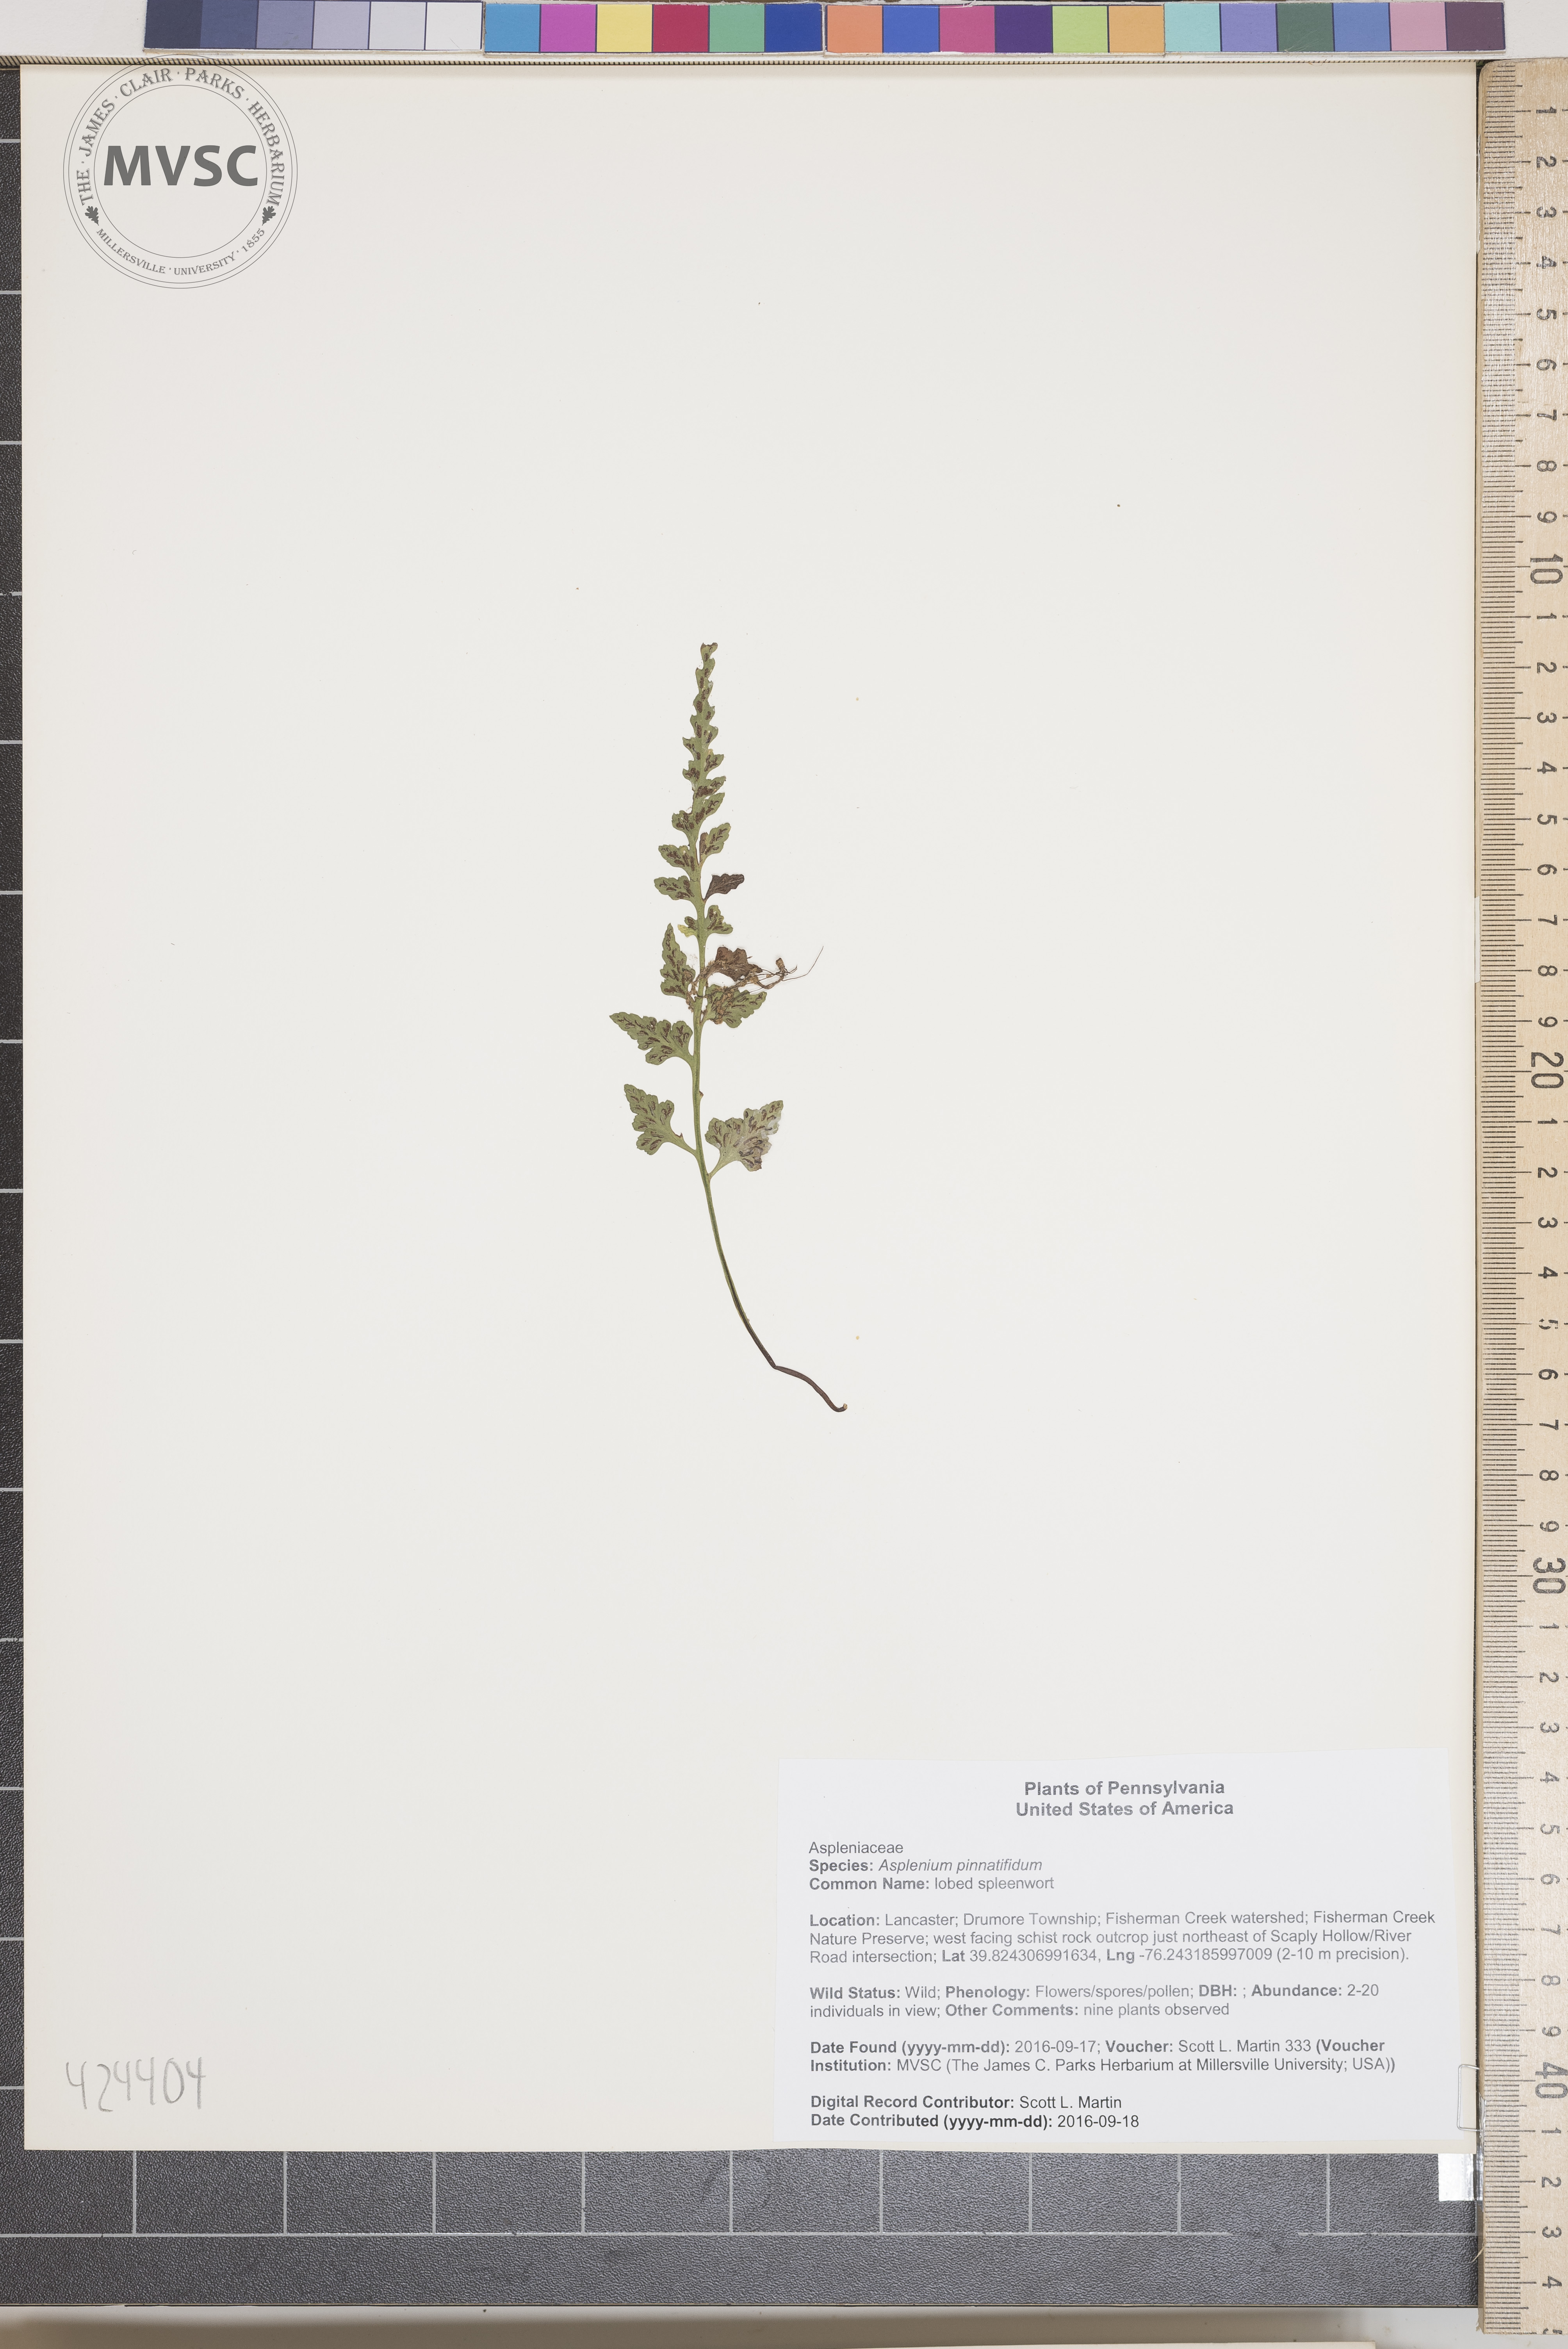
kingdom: Plantae
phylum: Tracheophyta
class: Polypodiopsida
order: Polypodiales
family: Aspleniaceae
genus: Asplenium
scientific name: Asplenium pinnatifidum
